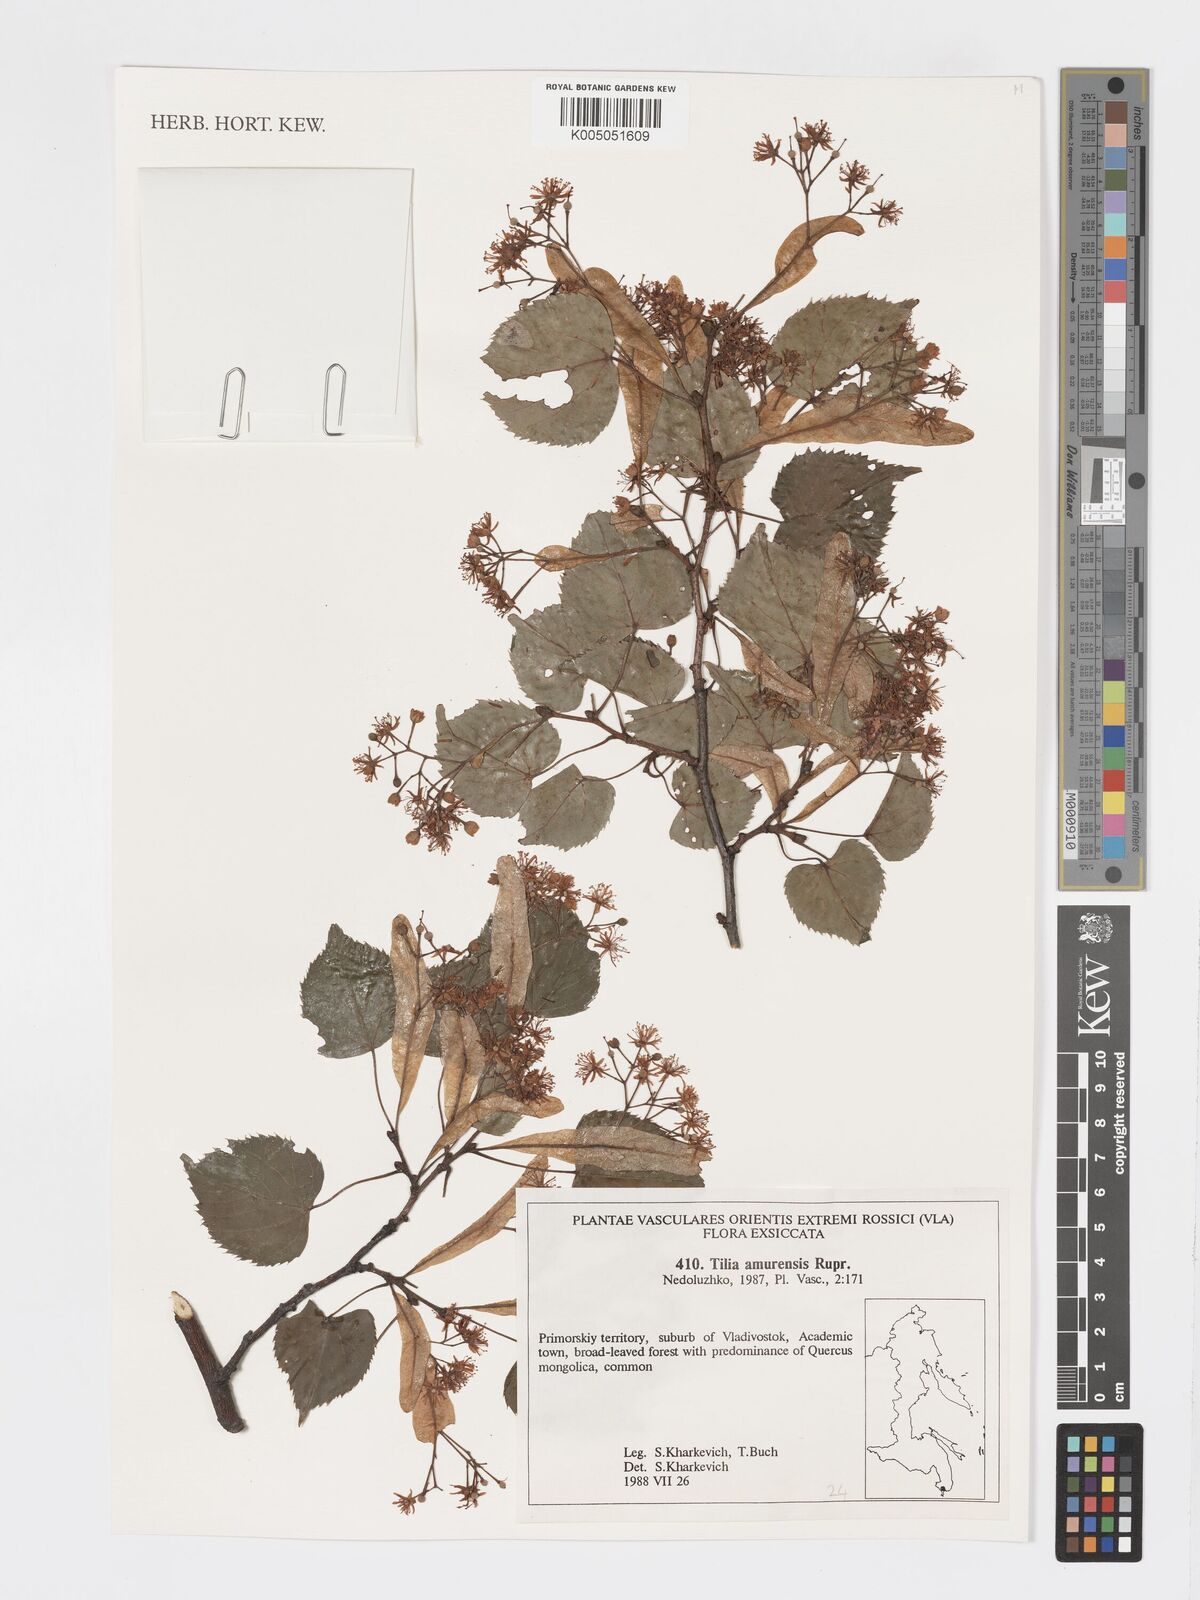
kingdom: Plantae
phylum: Tracheophyta
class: Magnoliopsida
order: Malvales
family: Malvaceae
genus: Tilia
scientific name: Tilia
